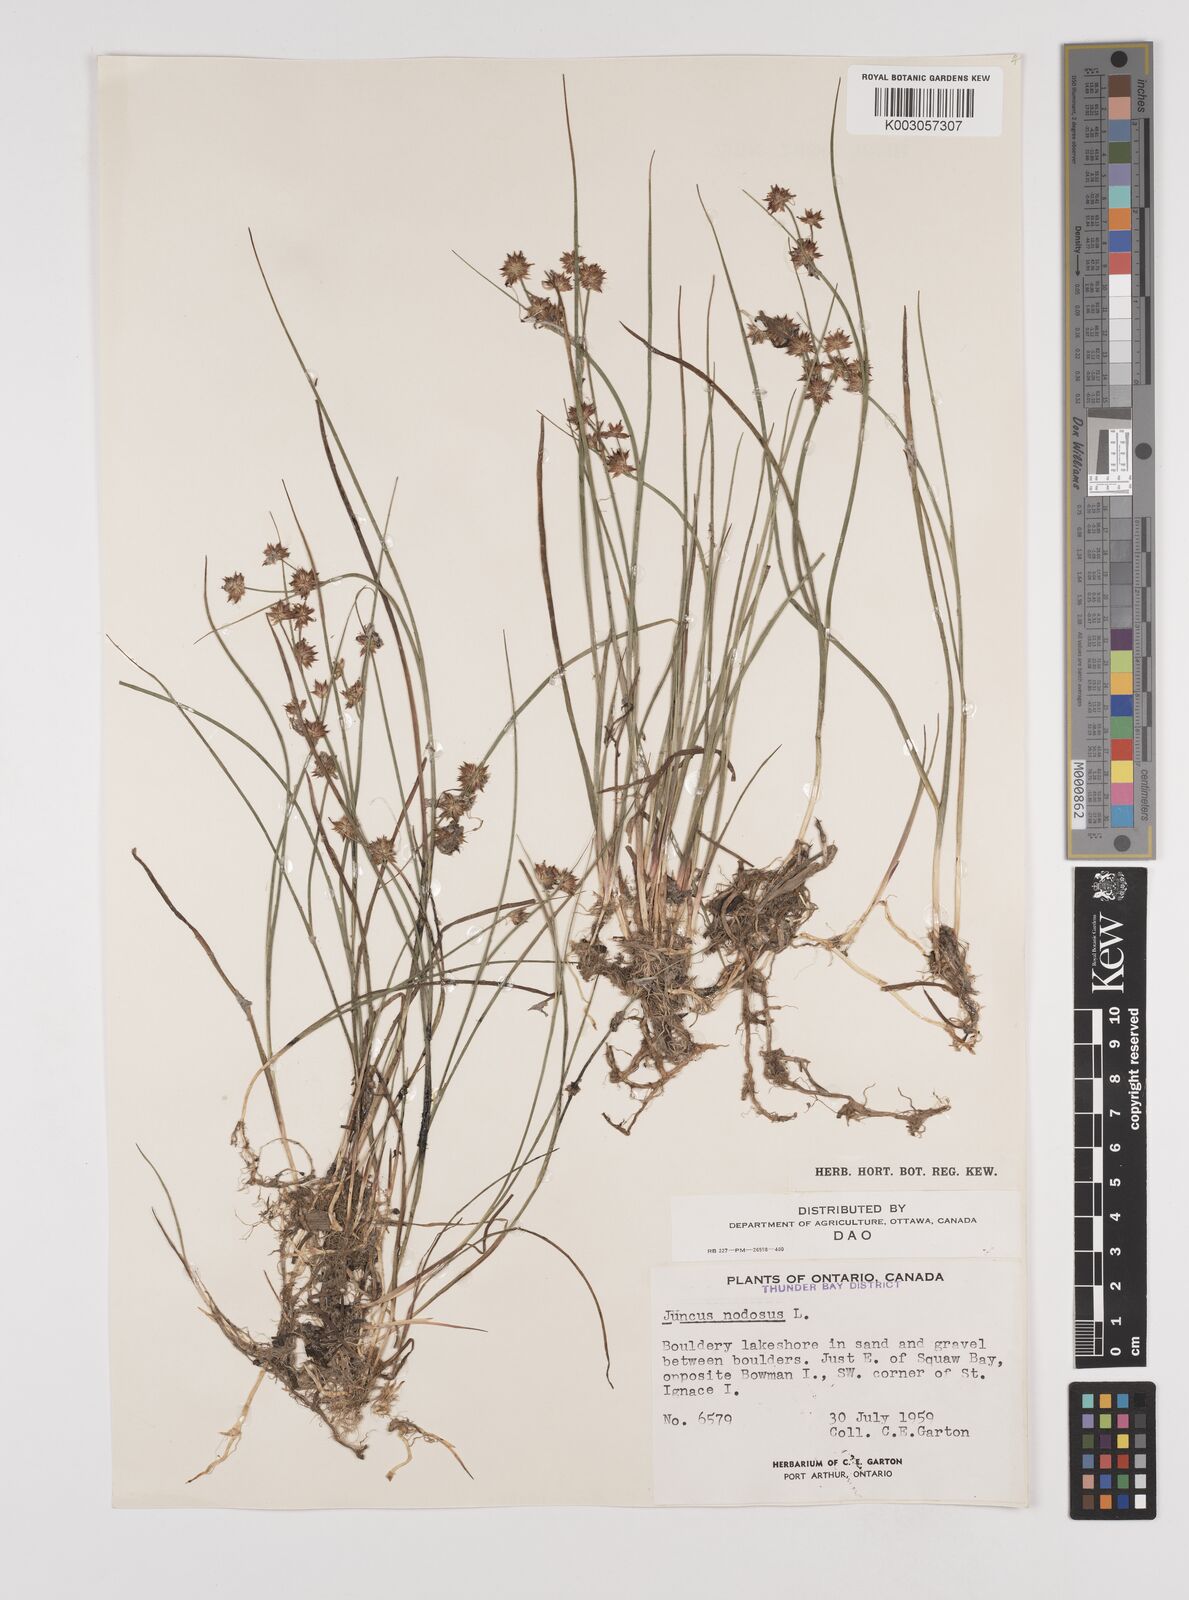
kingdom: Plantae
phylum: Tracheophyta
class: Liliopsida
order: Poales
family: Juncaceae
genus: Juncus
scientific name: Juncus nodosus
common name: Knotted rush
